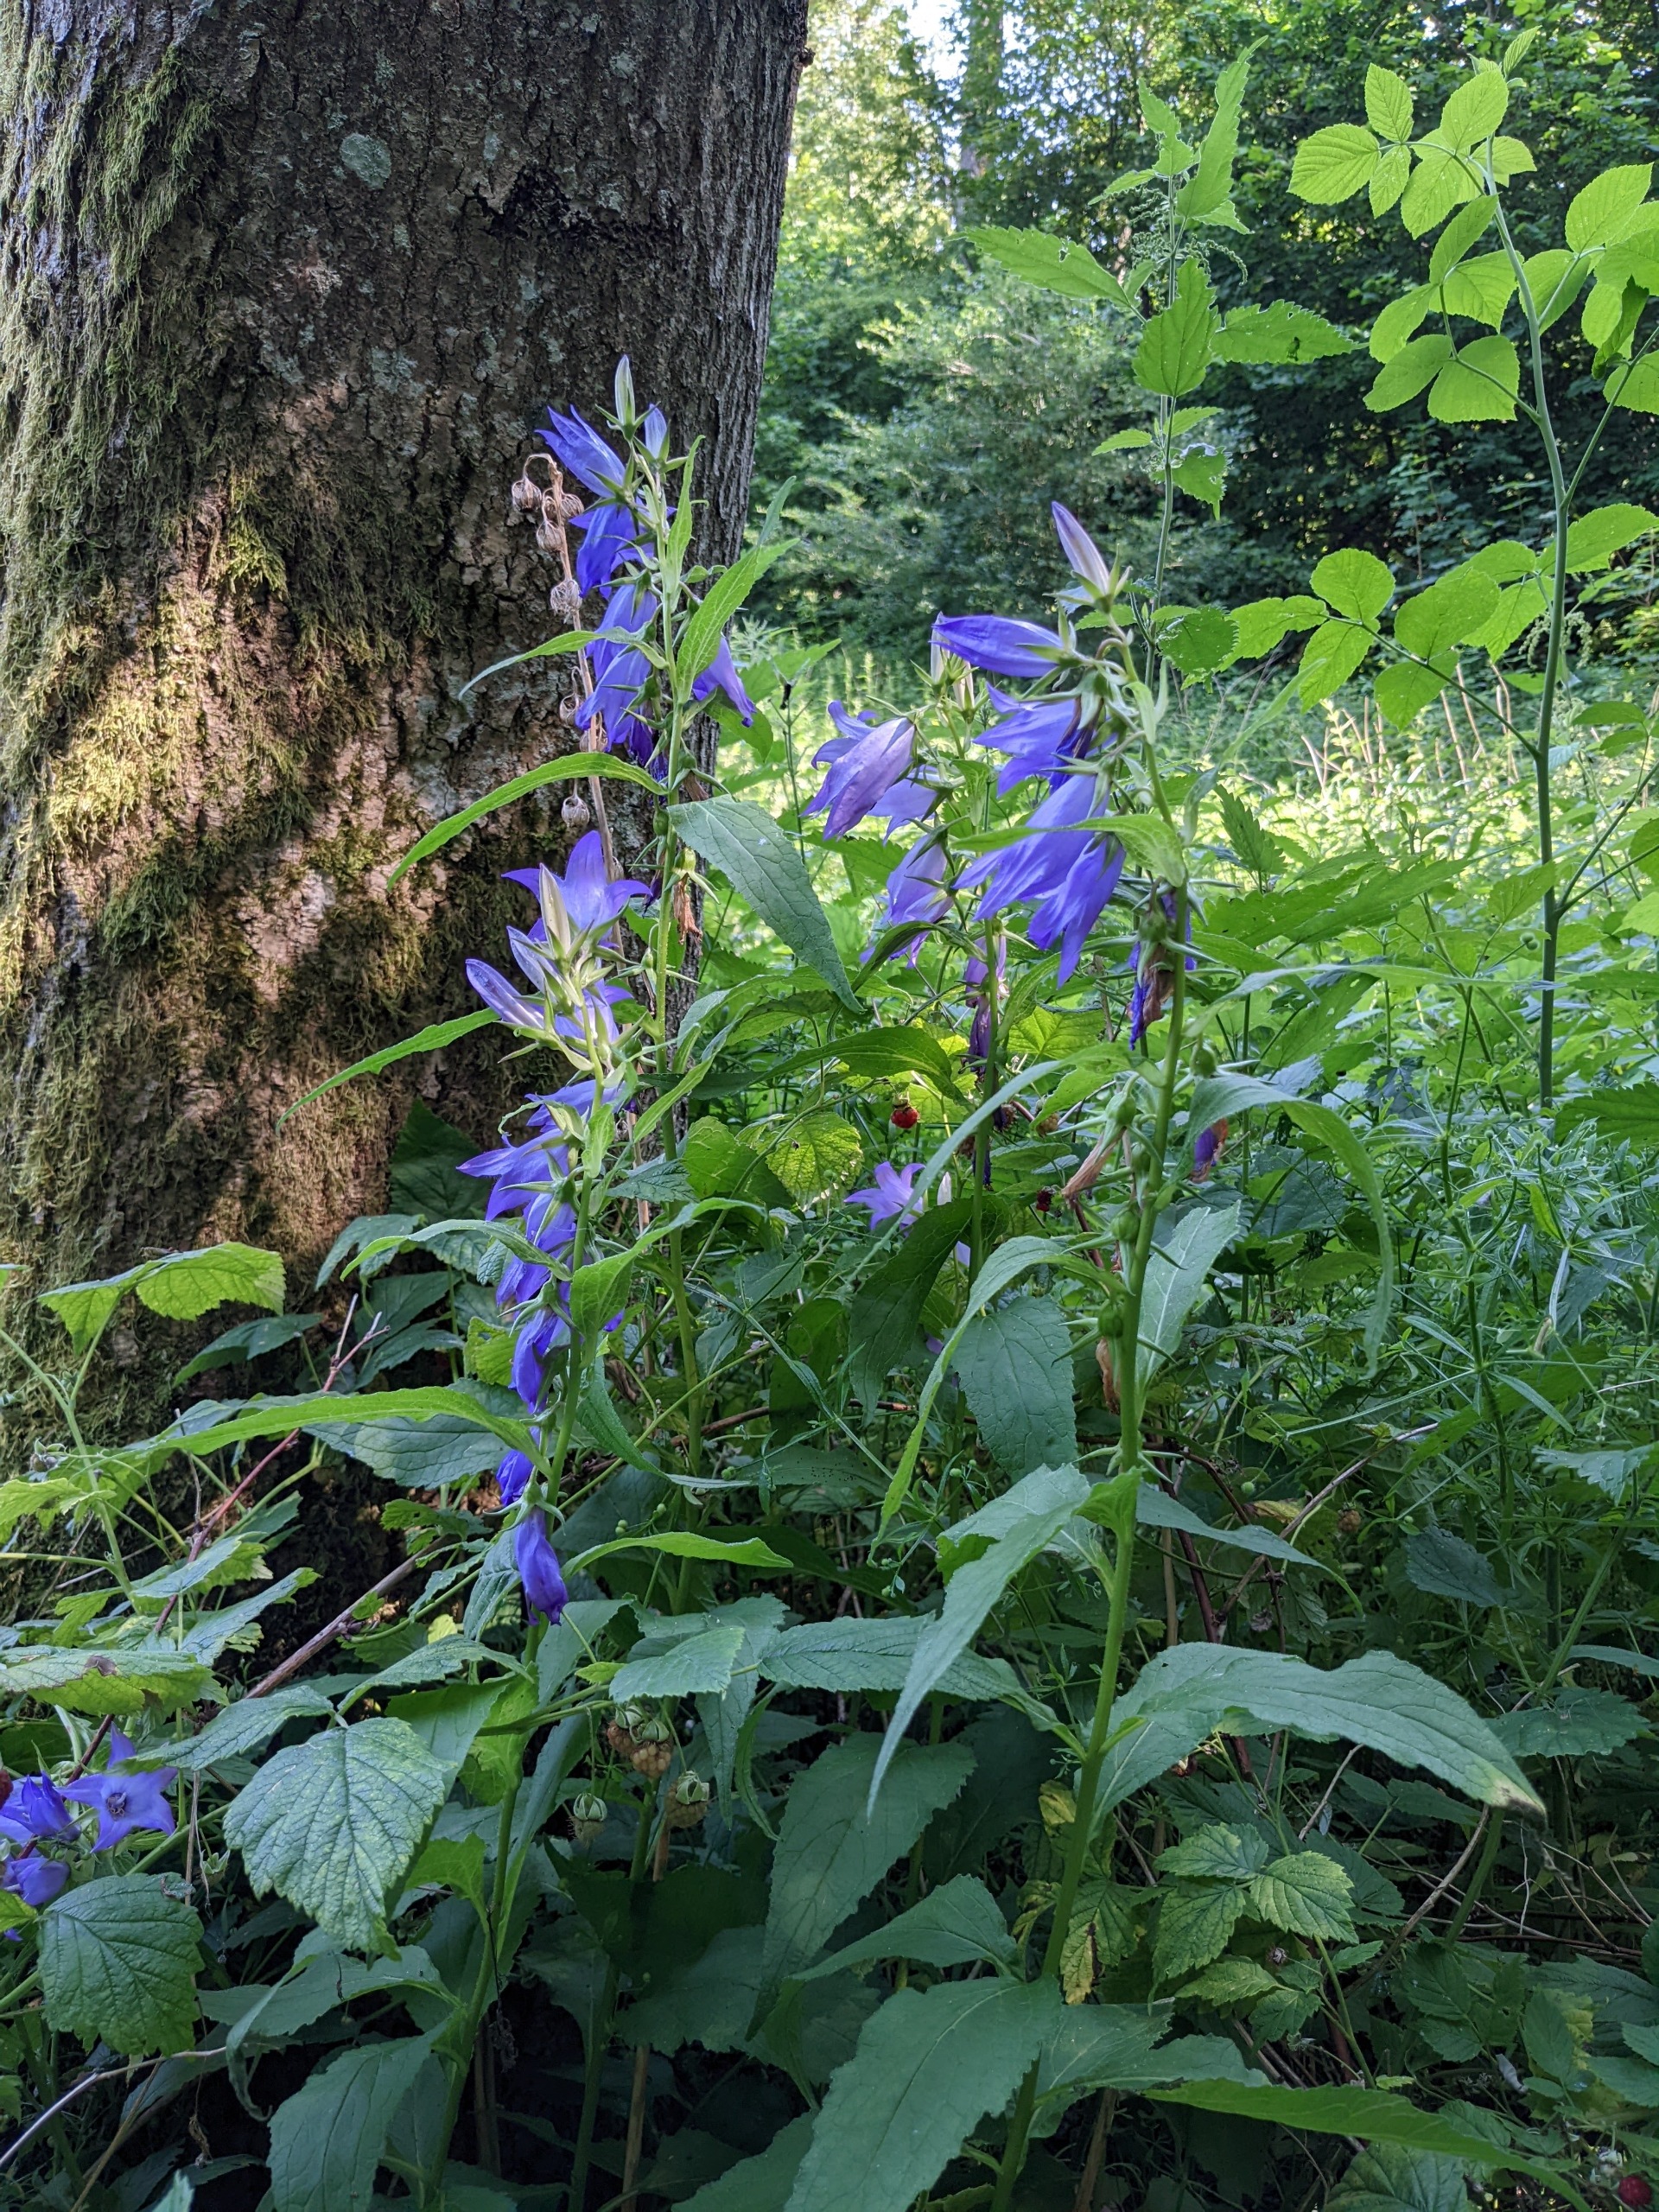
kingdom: Plantae
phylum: Tracheophyta
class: Magnoliopsida
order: Asterales
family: Campanulaceae
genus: Campanula
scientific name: Campanula latifolia
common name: Bredbladet klokke
